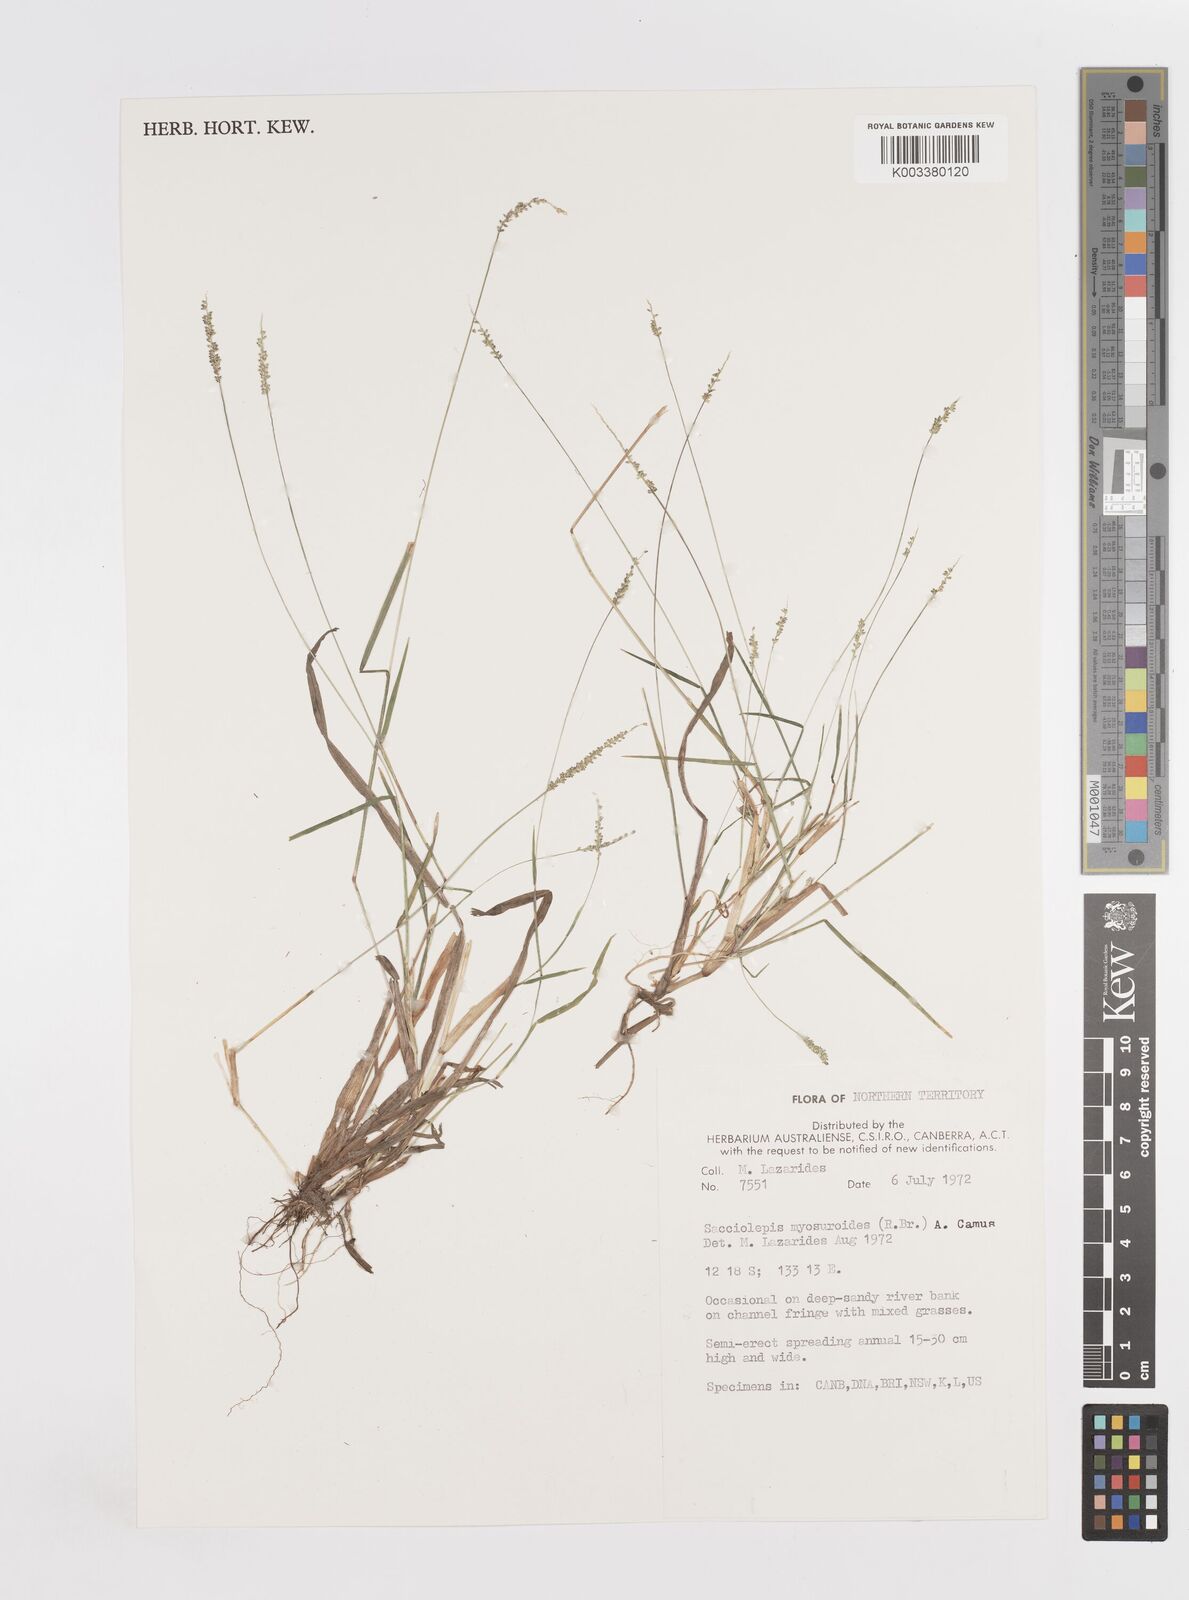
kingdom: Plantae
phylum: Tracheophyta
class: Liliopsida
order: Poales
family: Poaceae
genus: Sacciolepis
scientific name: Sacciolepis myosuroides
